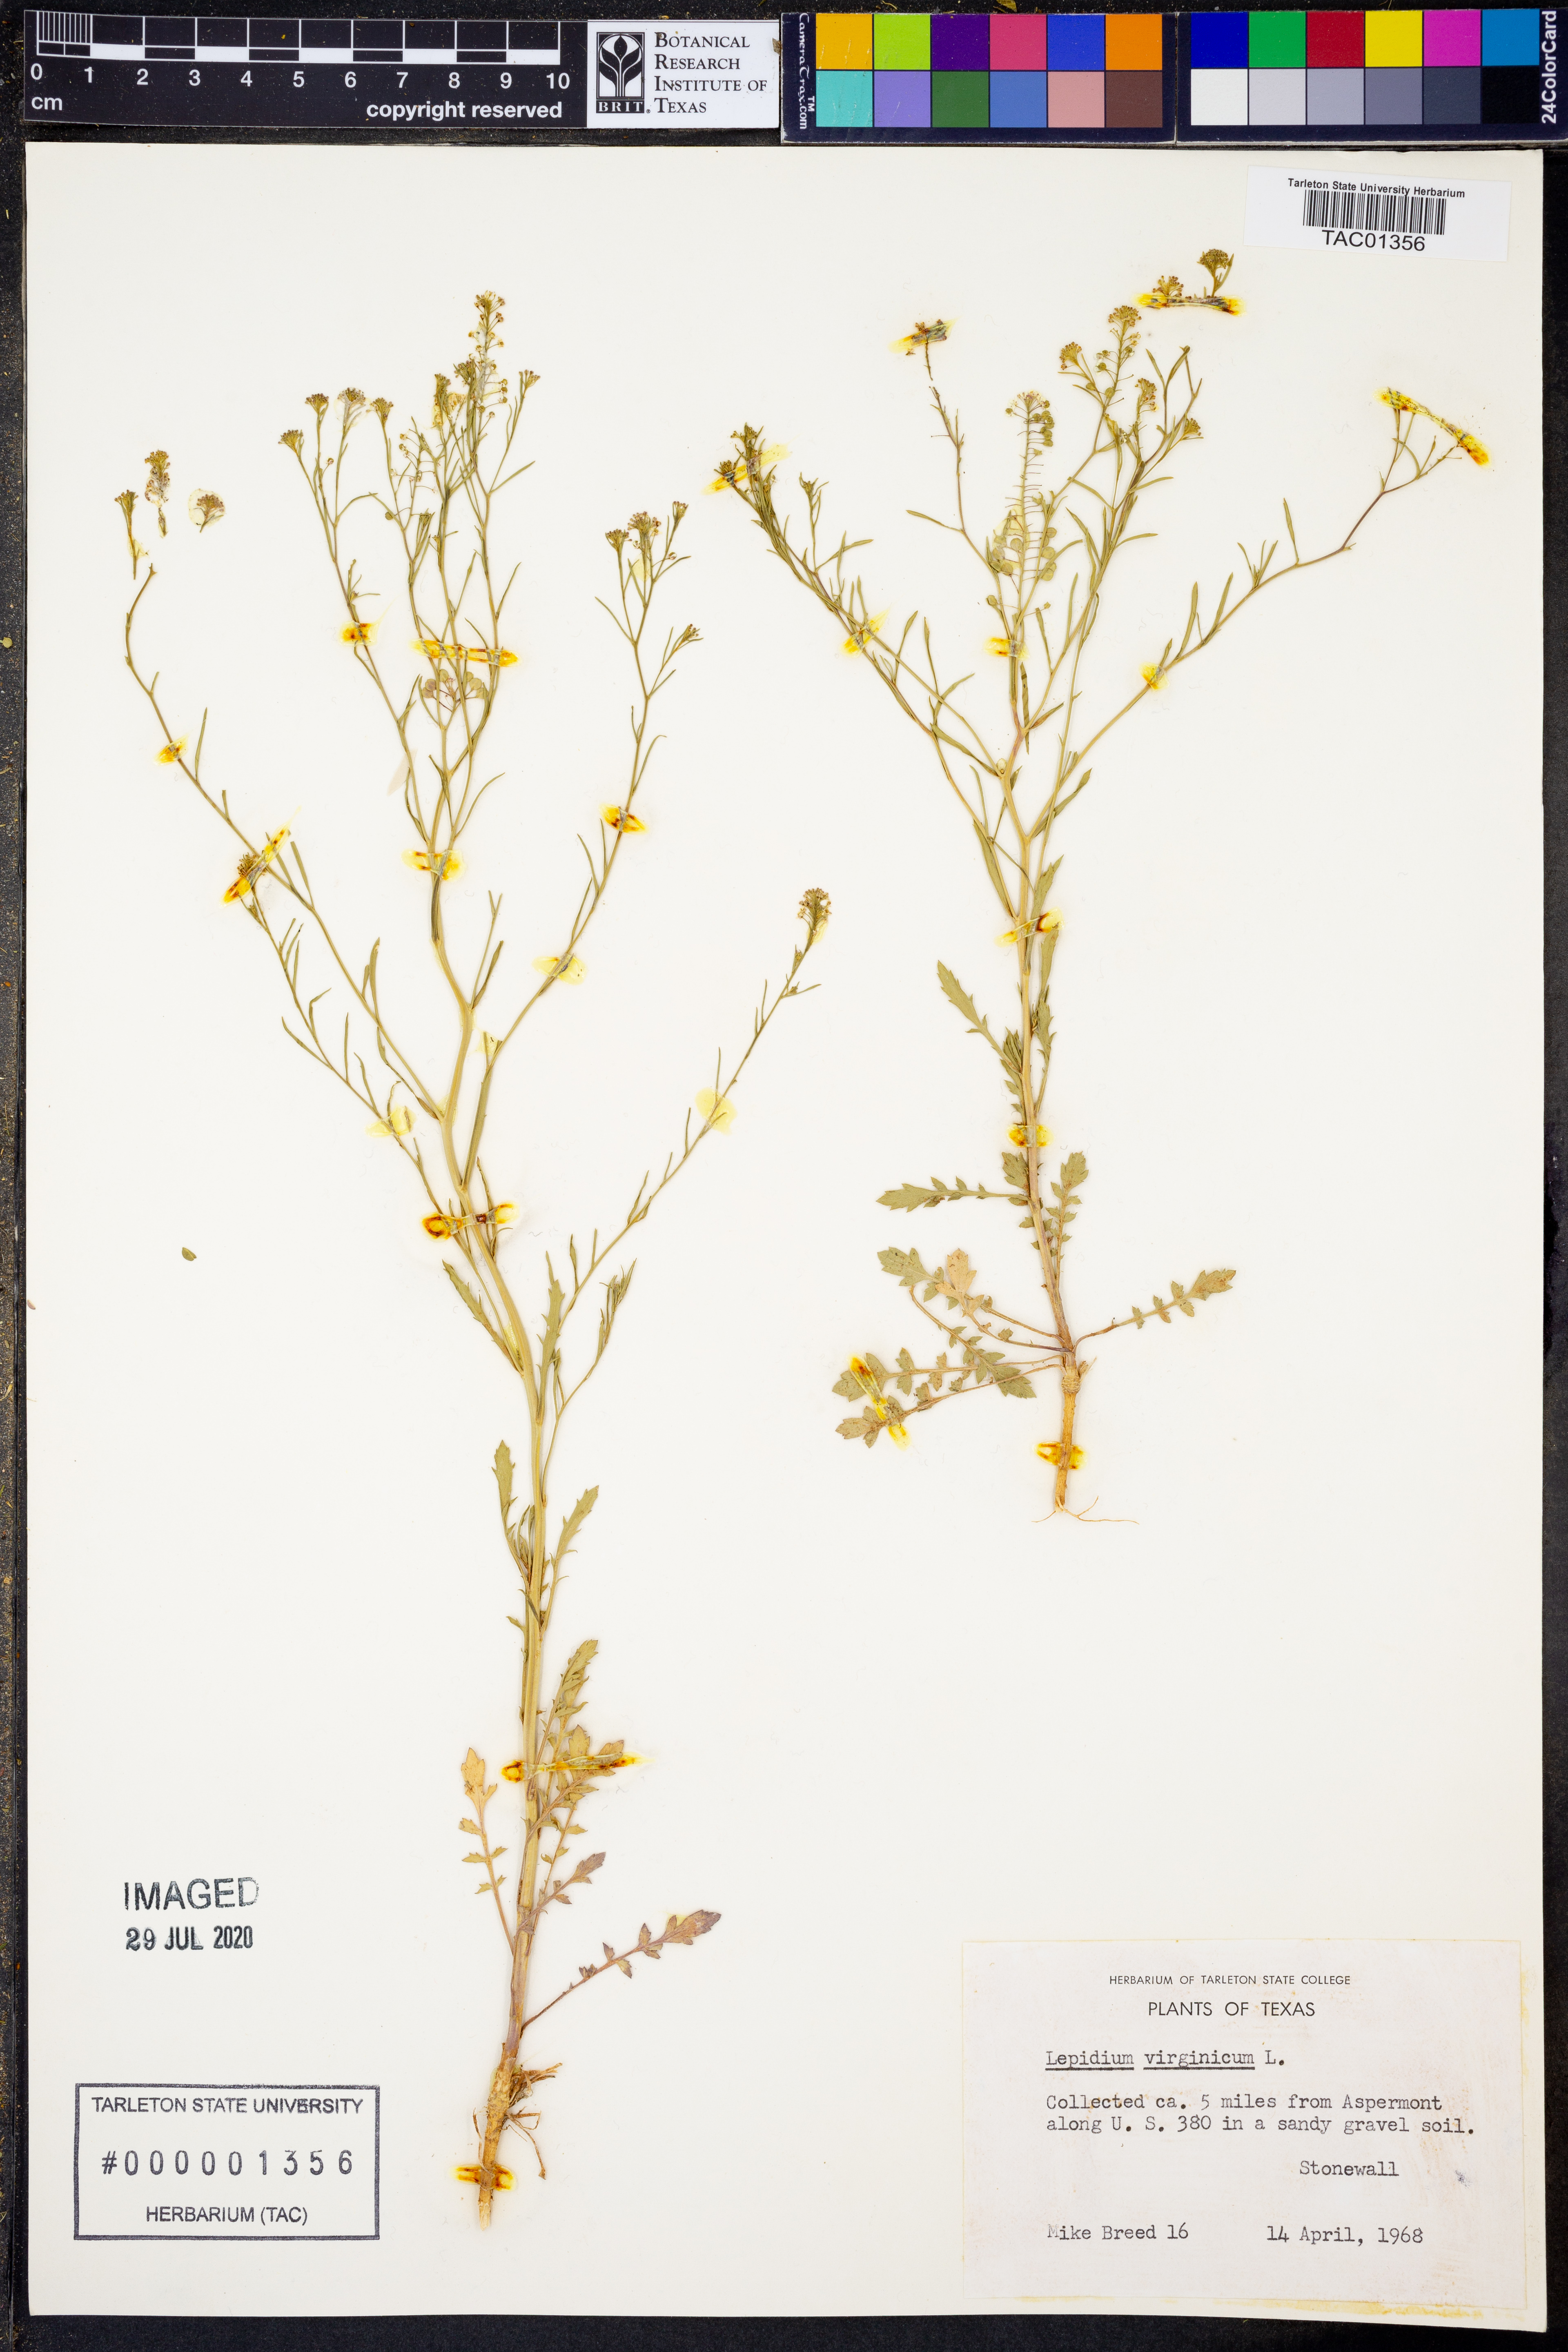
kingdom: Plantae
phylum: Tracheophyta
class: Magnoliopsida
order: Brassicales
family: Brassicaceae
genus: Lepidium
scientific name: Lepidium virginicum
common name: Least pepperwort
